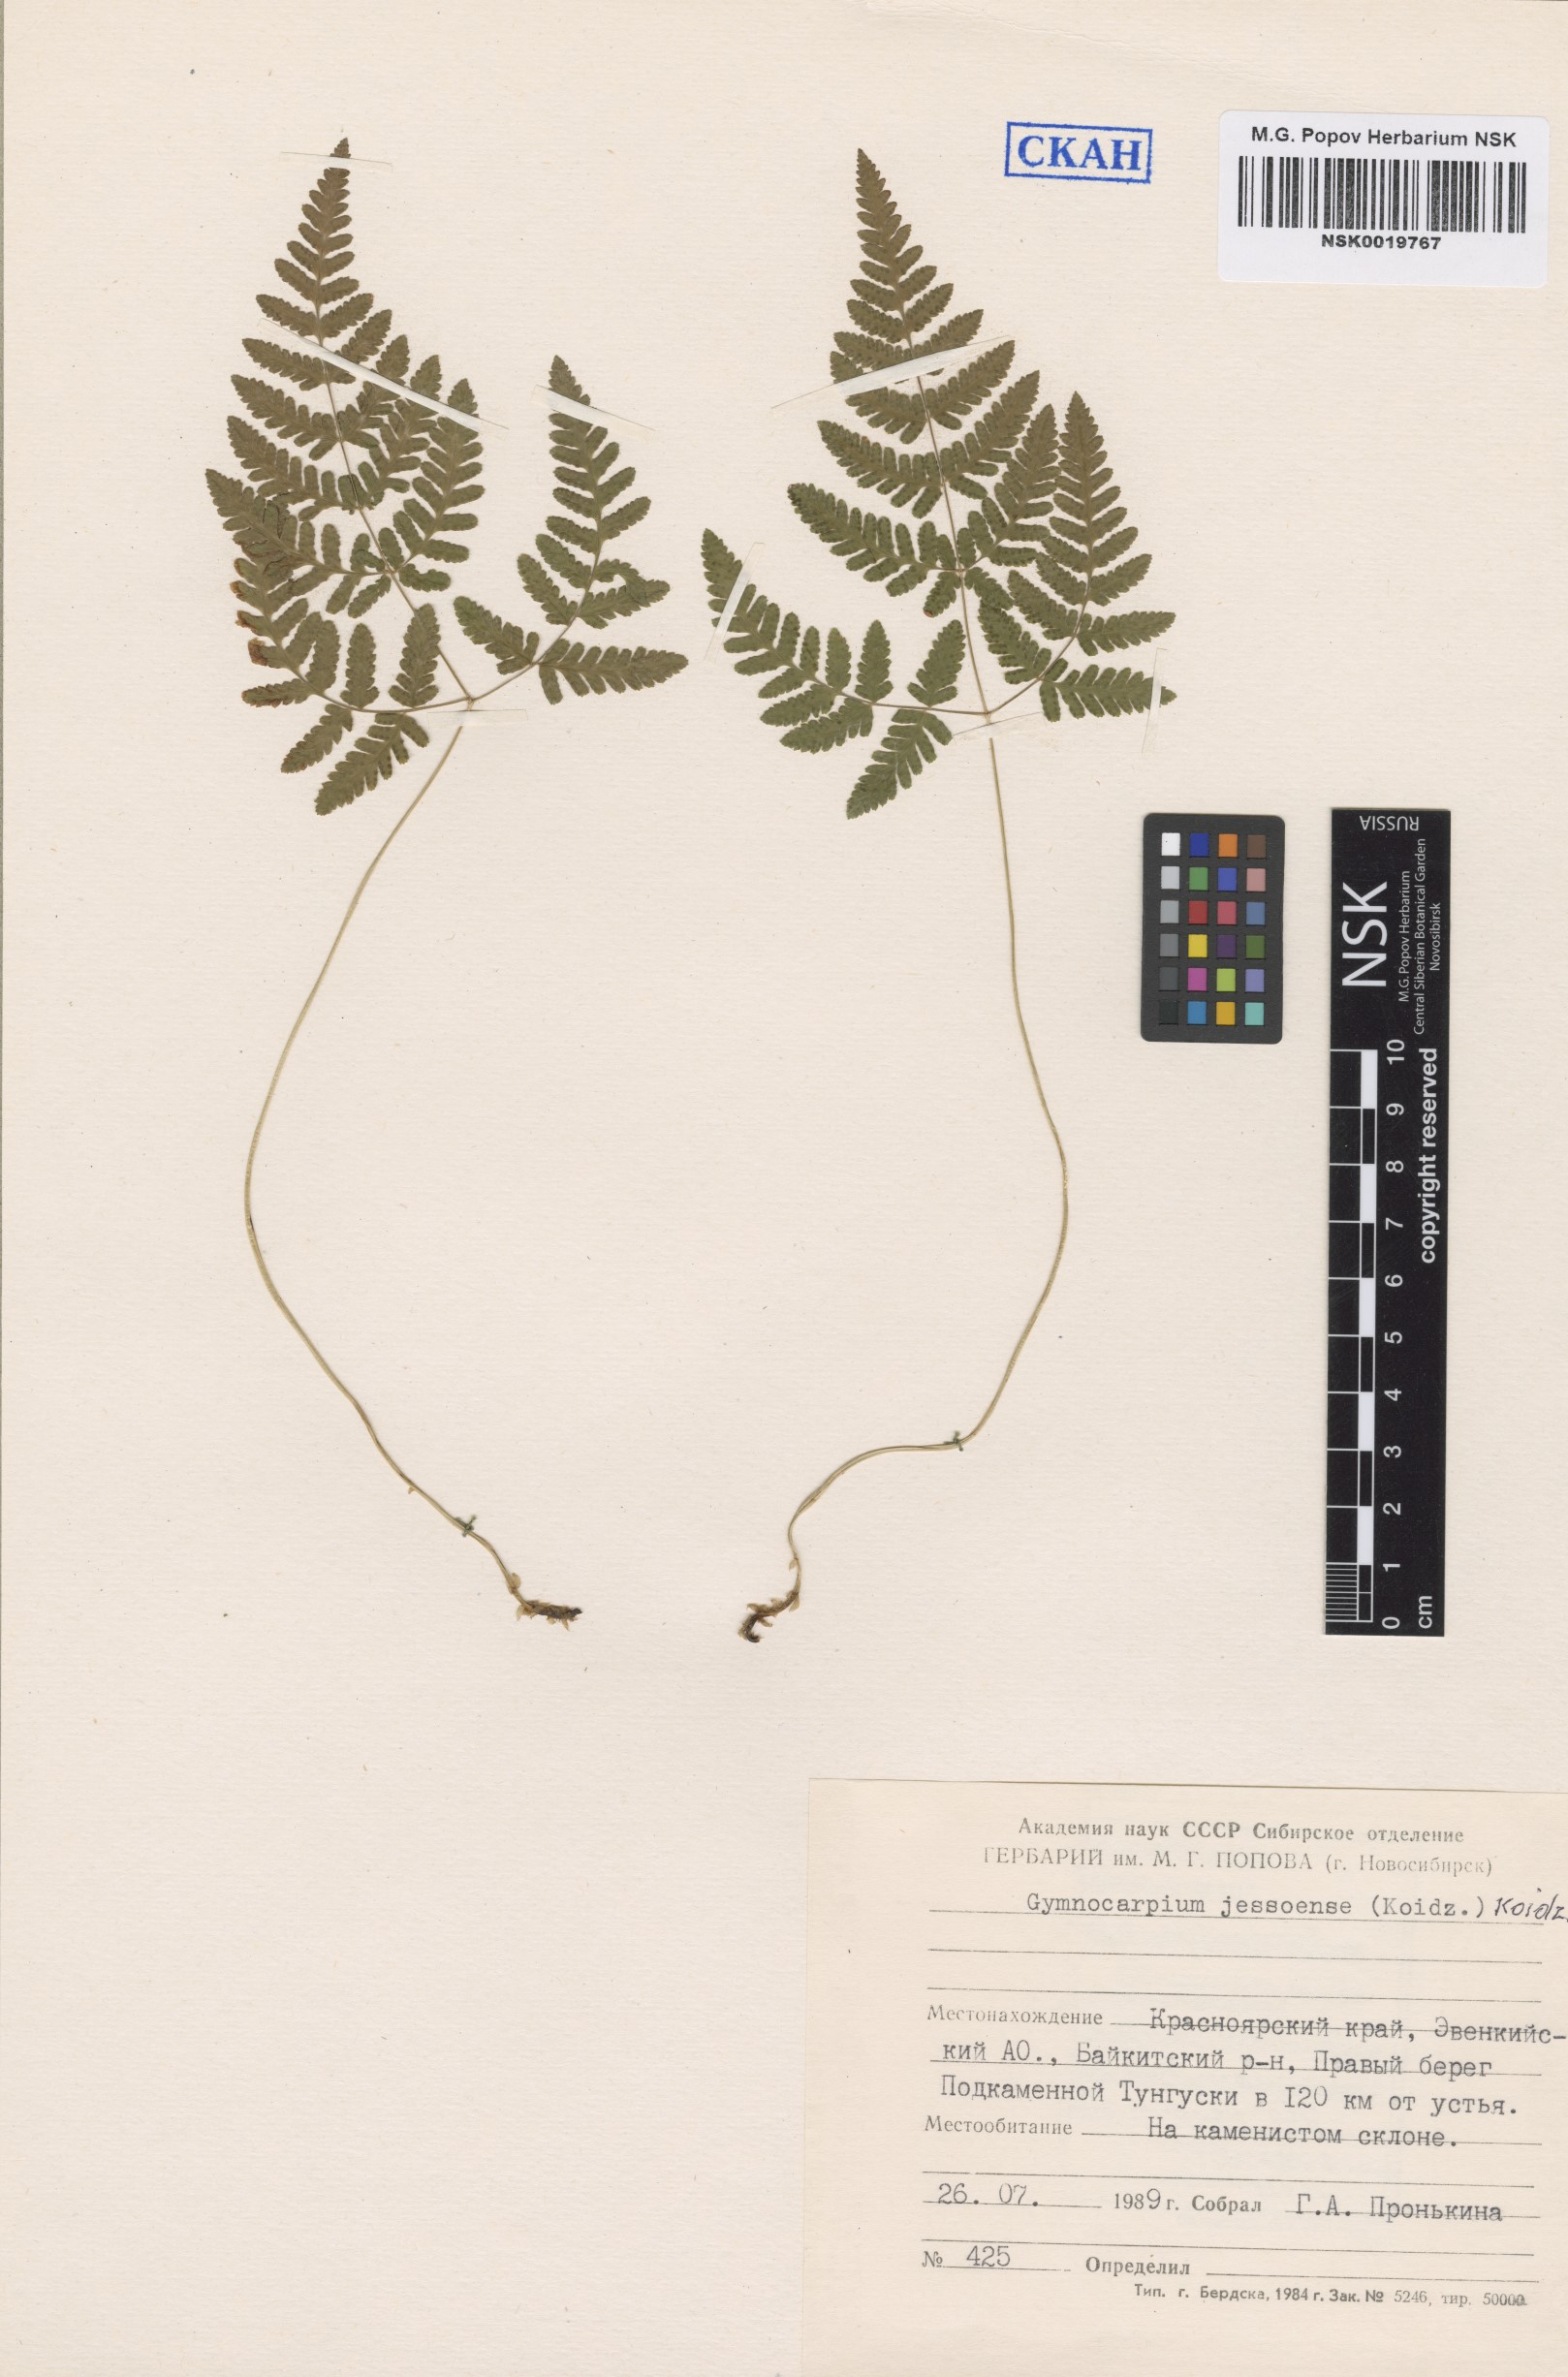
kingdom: Plantae
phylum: Tracheophyta
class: Polypodiopsida
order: Polypodiales
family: Cystopteridaceae
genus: Gymnocarpium
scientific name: Gymnocarpium jessoense
